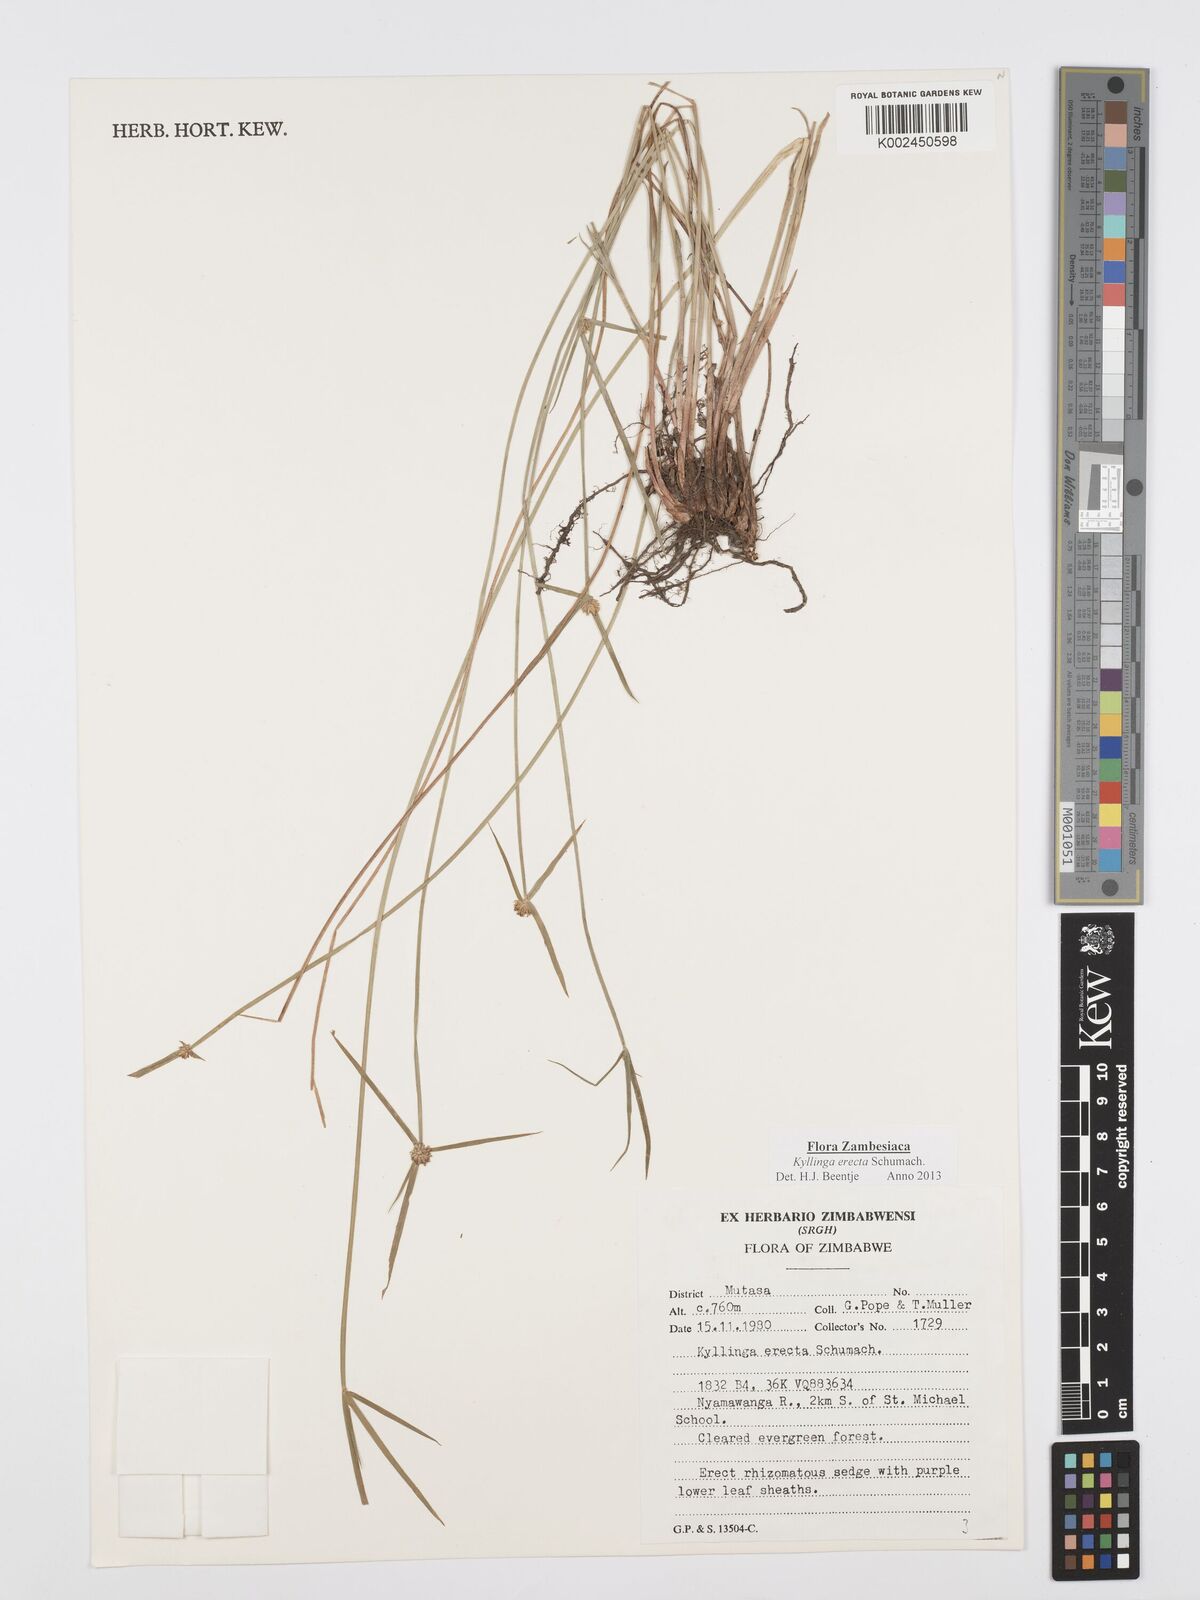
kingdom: Plantae
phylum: Tracheophyta
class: Liliopsida
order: Poales
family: Cyperaceae
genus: Cyperus
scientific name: Cyperus erectus
